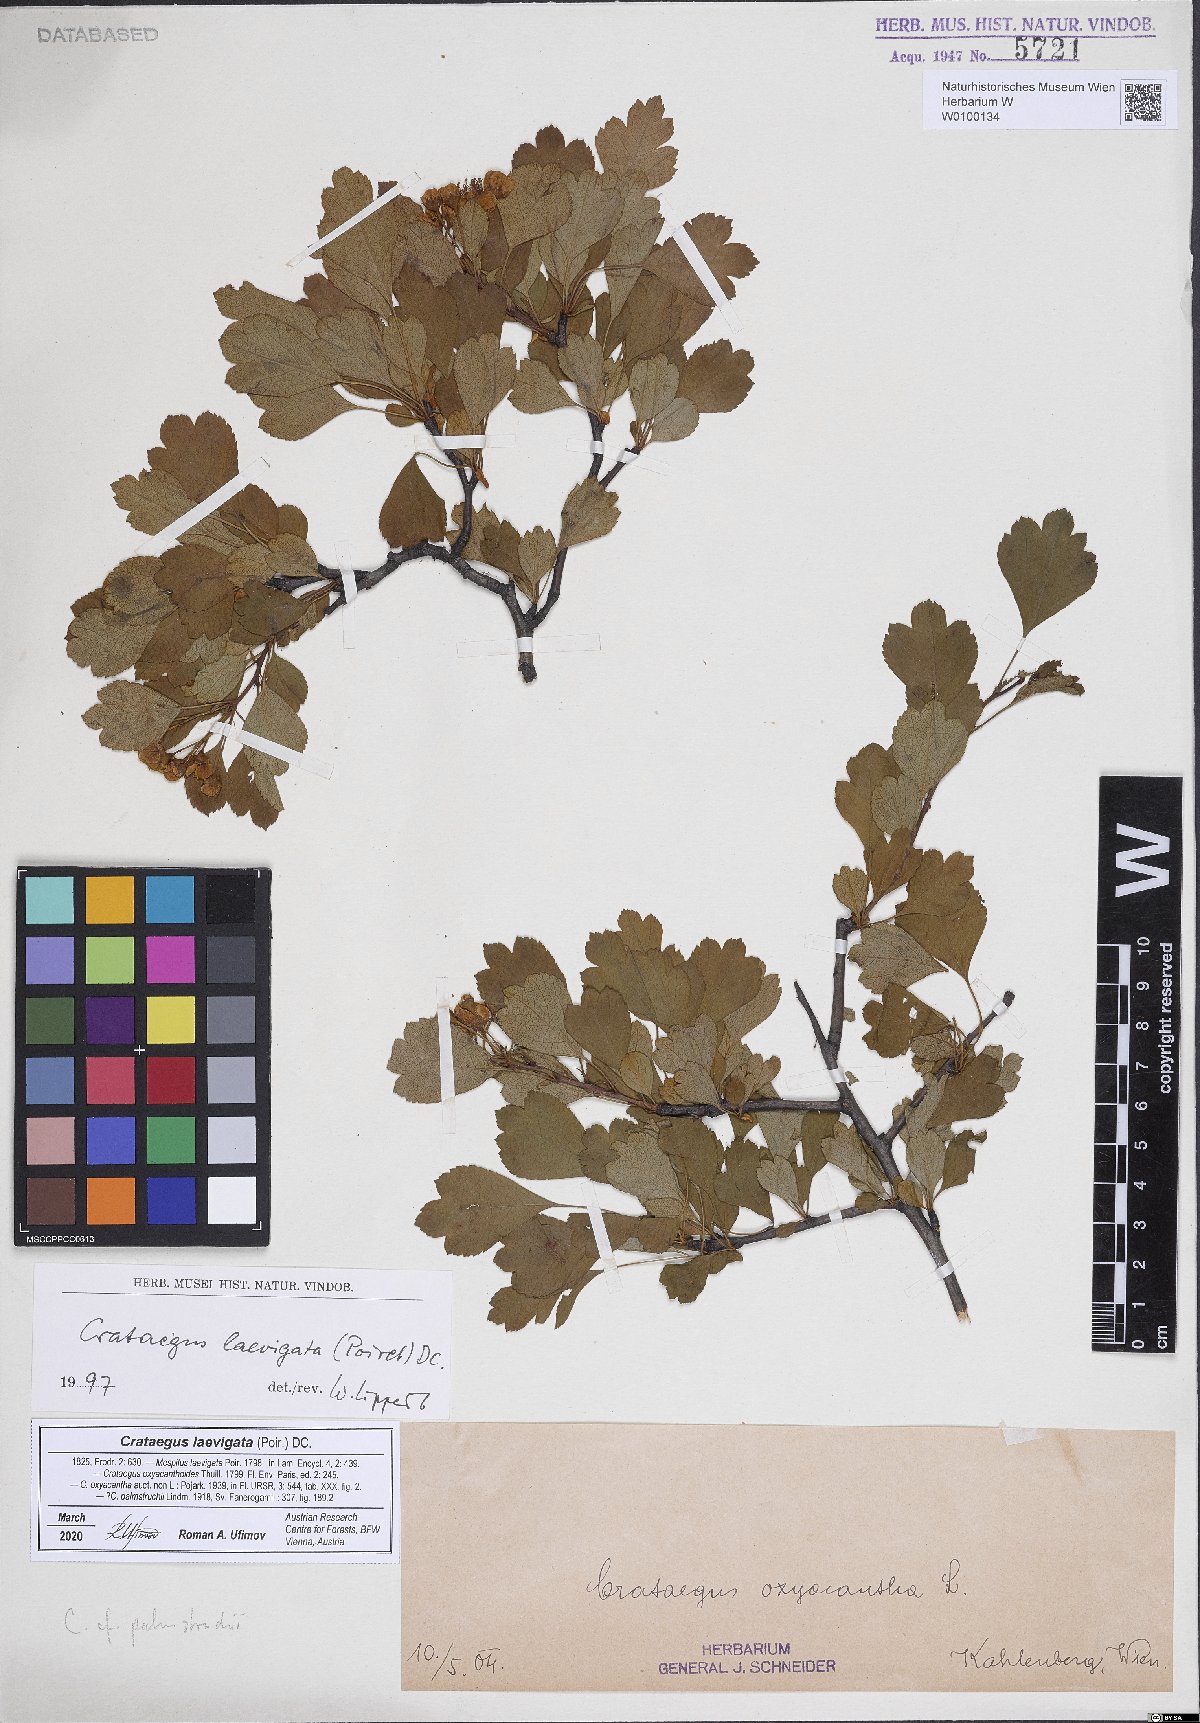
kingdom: Plantae
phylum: Tracheophyta
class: Magnoliopsida
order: Rosales
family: Rosaceae
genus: Crataegus
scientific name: Crataegus laevigata
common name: Midland hawthorn
